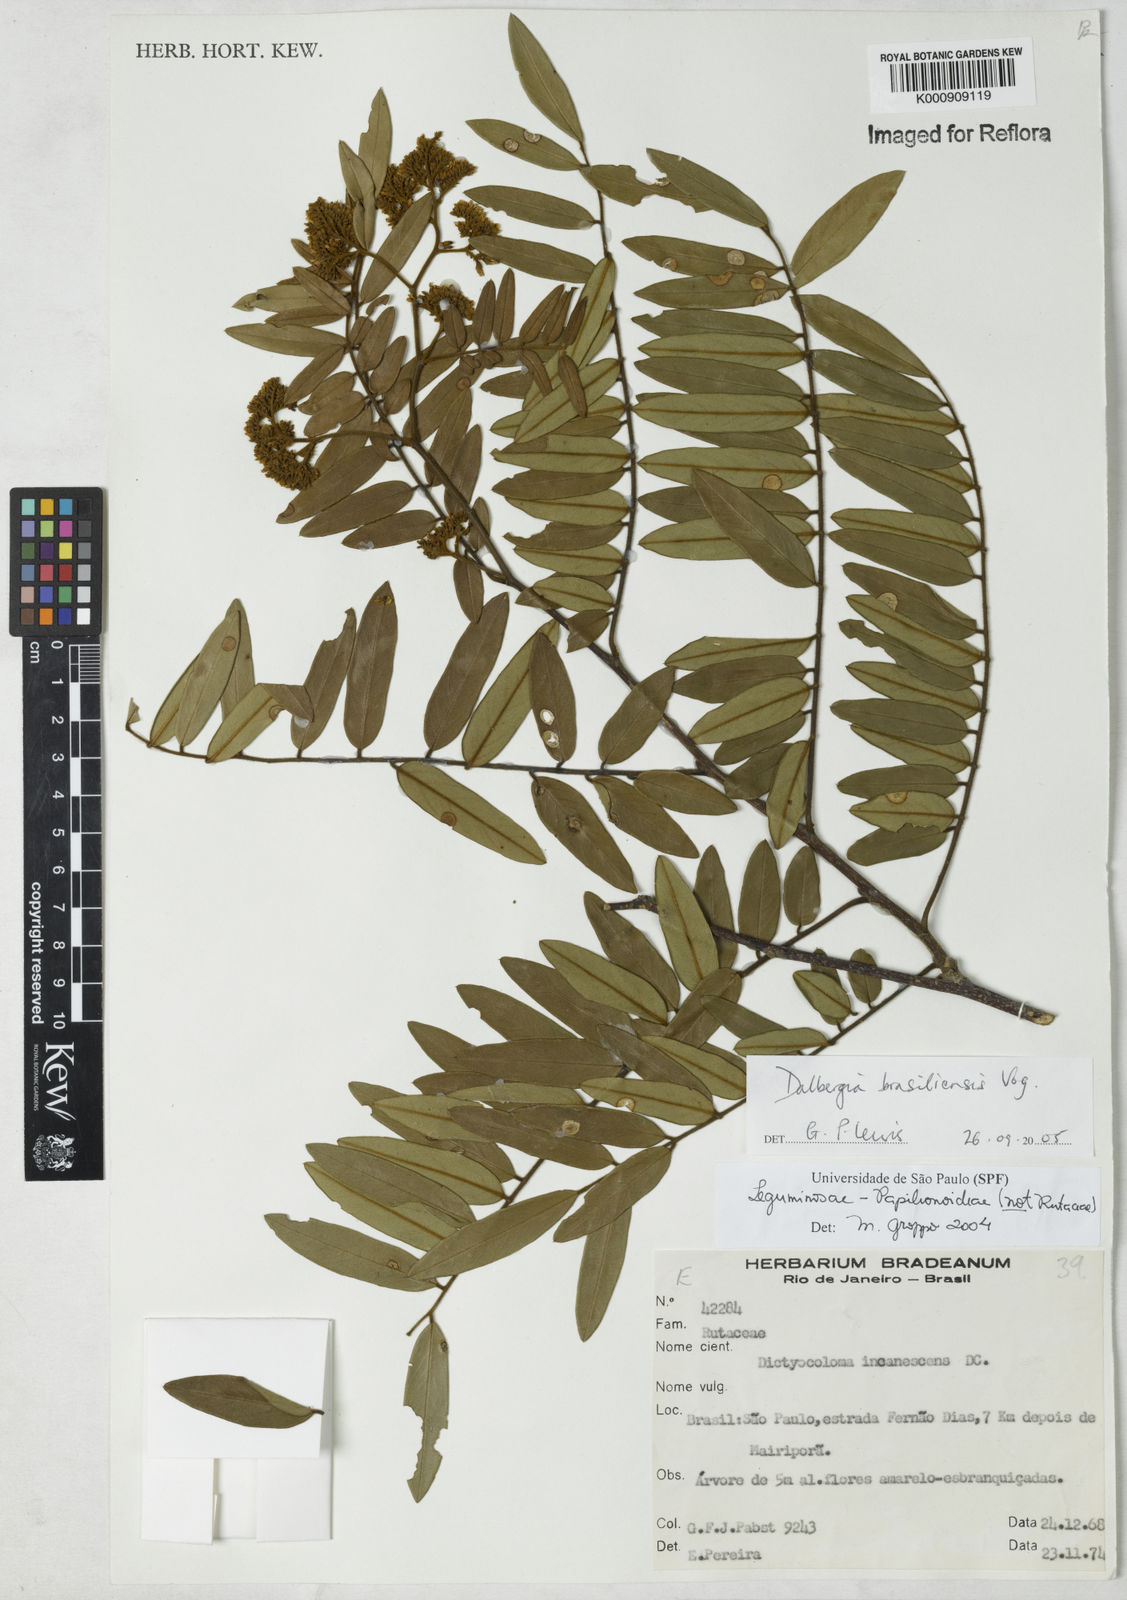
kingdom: Plantae
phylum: Tracheophyta
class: Magnoliopsida
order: Fabales
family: Fabaceae
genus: Dalbergia
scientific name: Dalbergia brasiliensis
